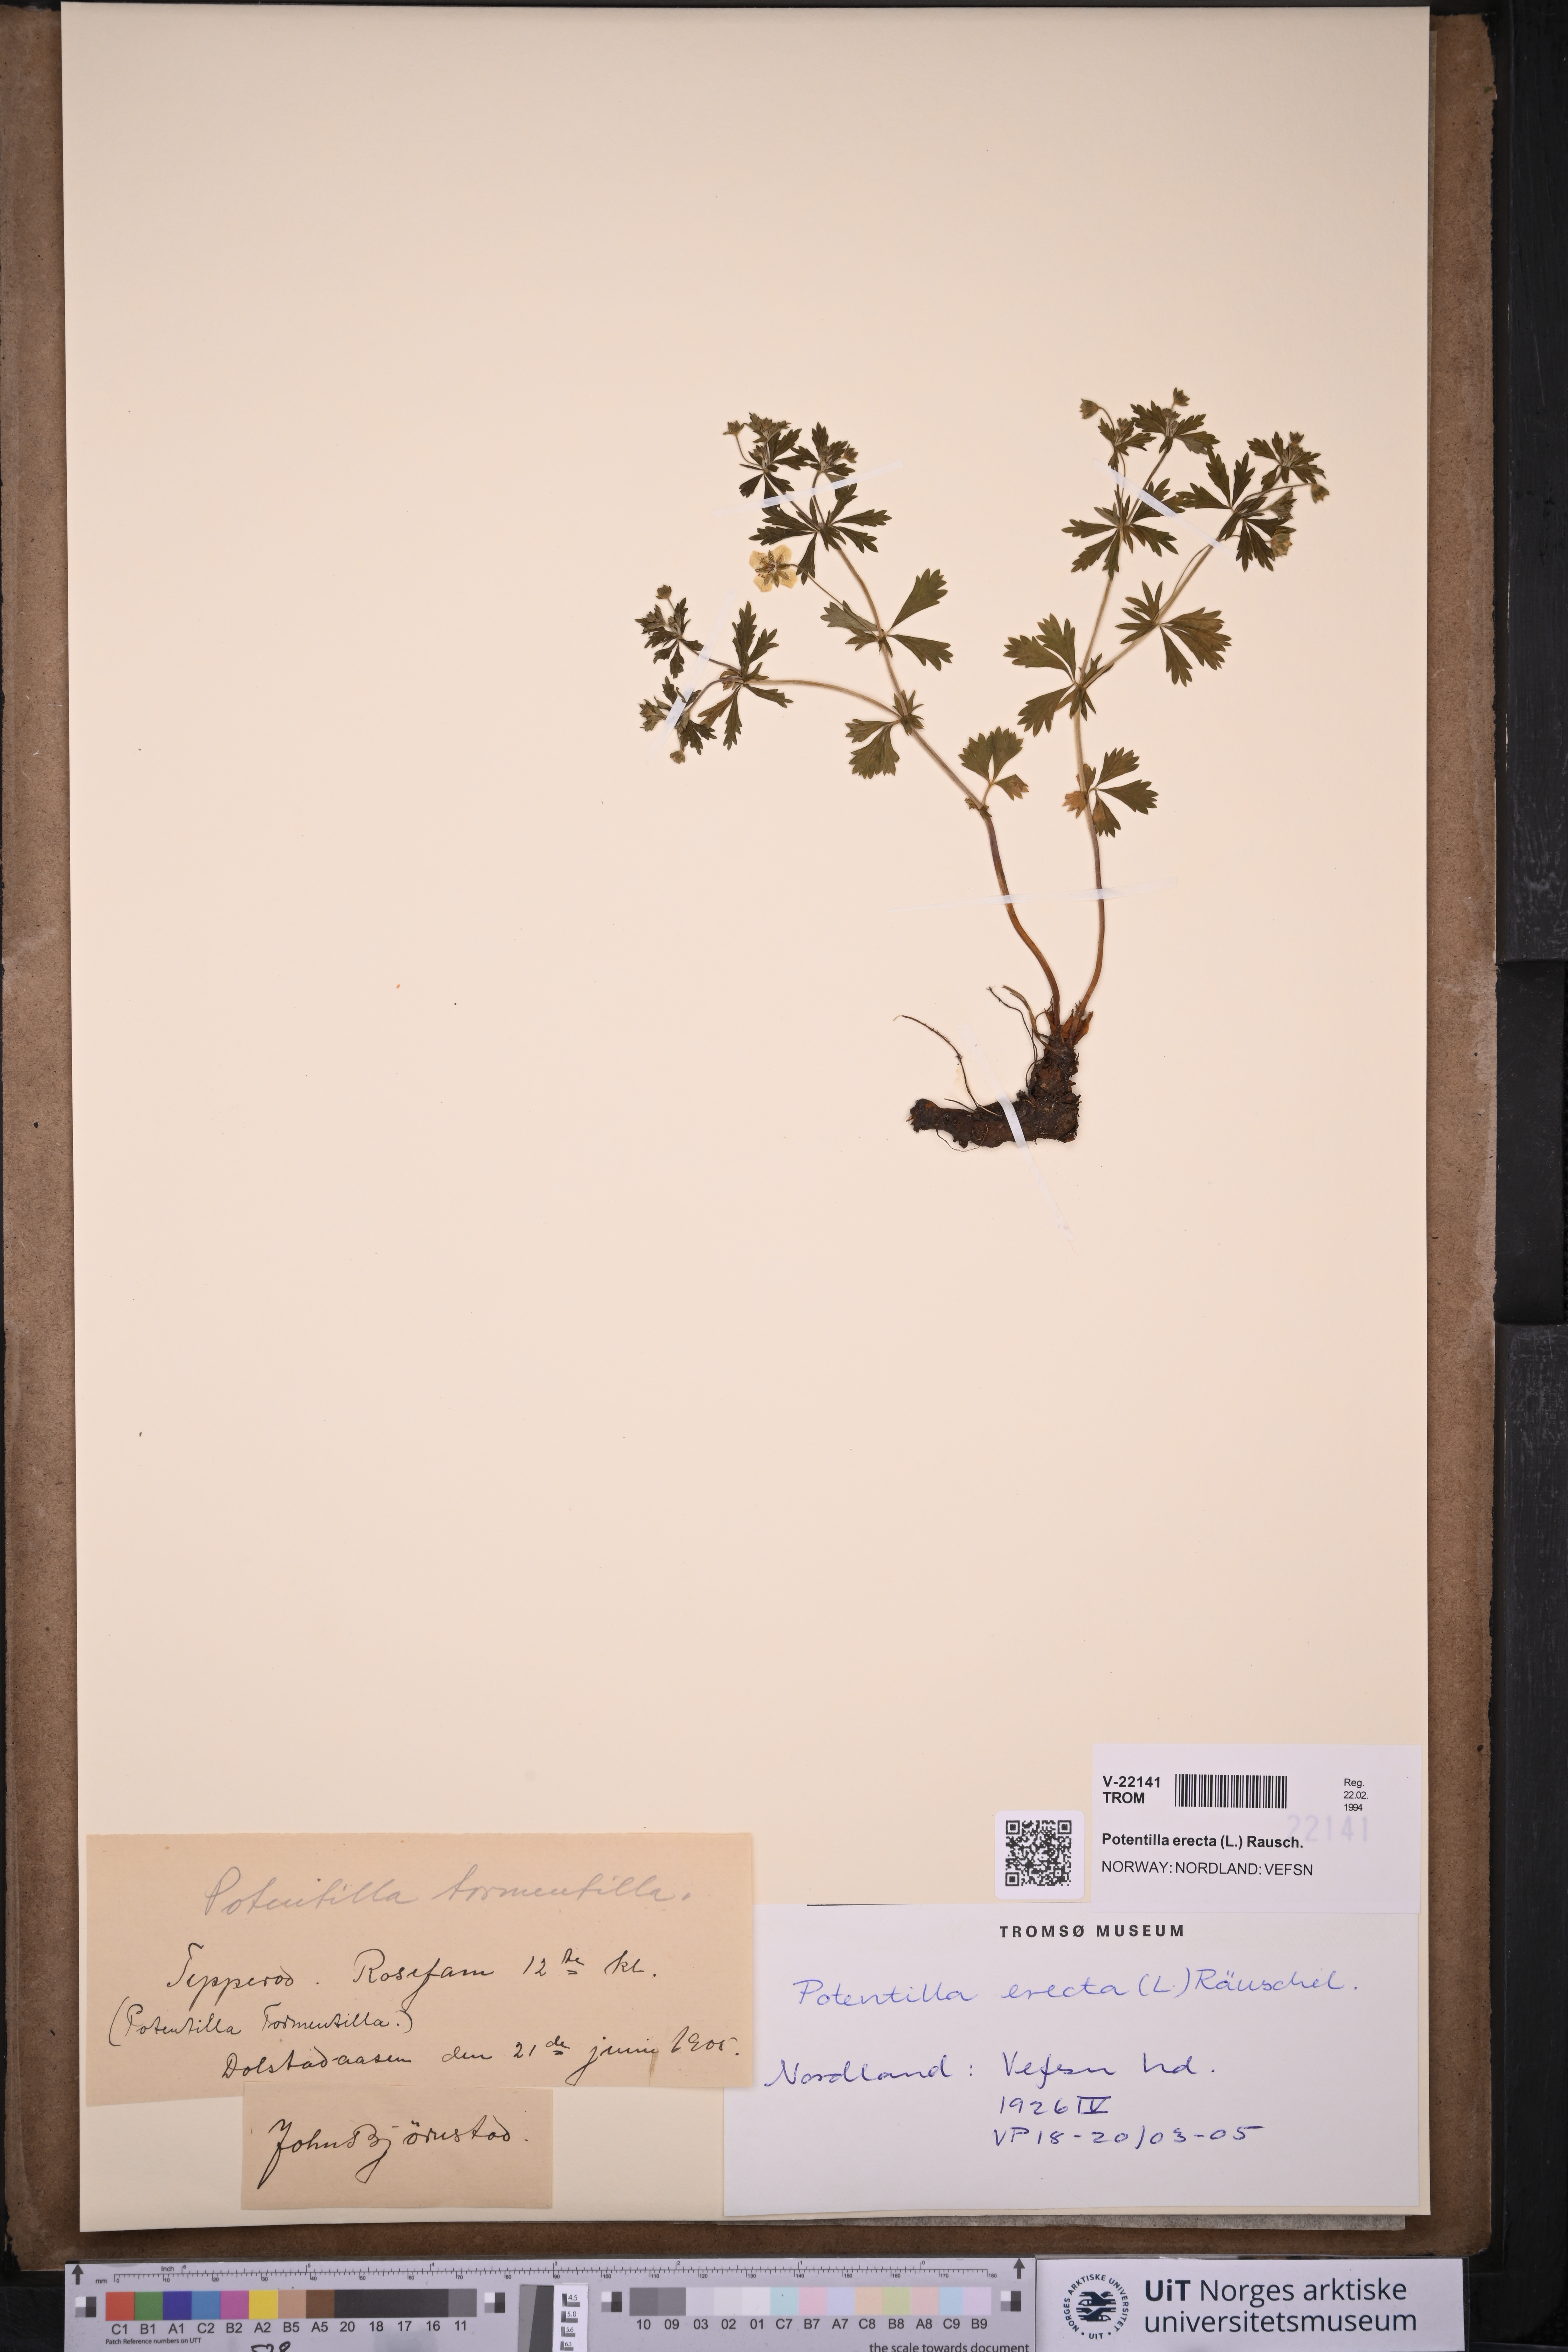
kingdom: Plantae
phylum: Tracheophyta
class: Magnoliopsida
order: Rosales
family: Rosaceae
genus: Potentilla
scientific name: Potentilla erecta
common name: Tormentil
